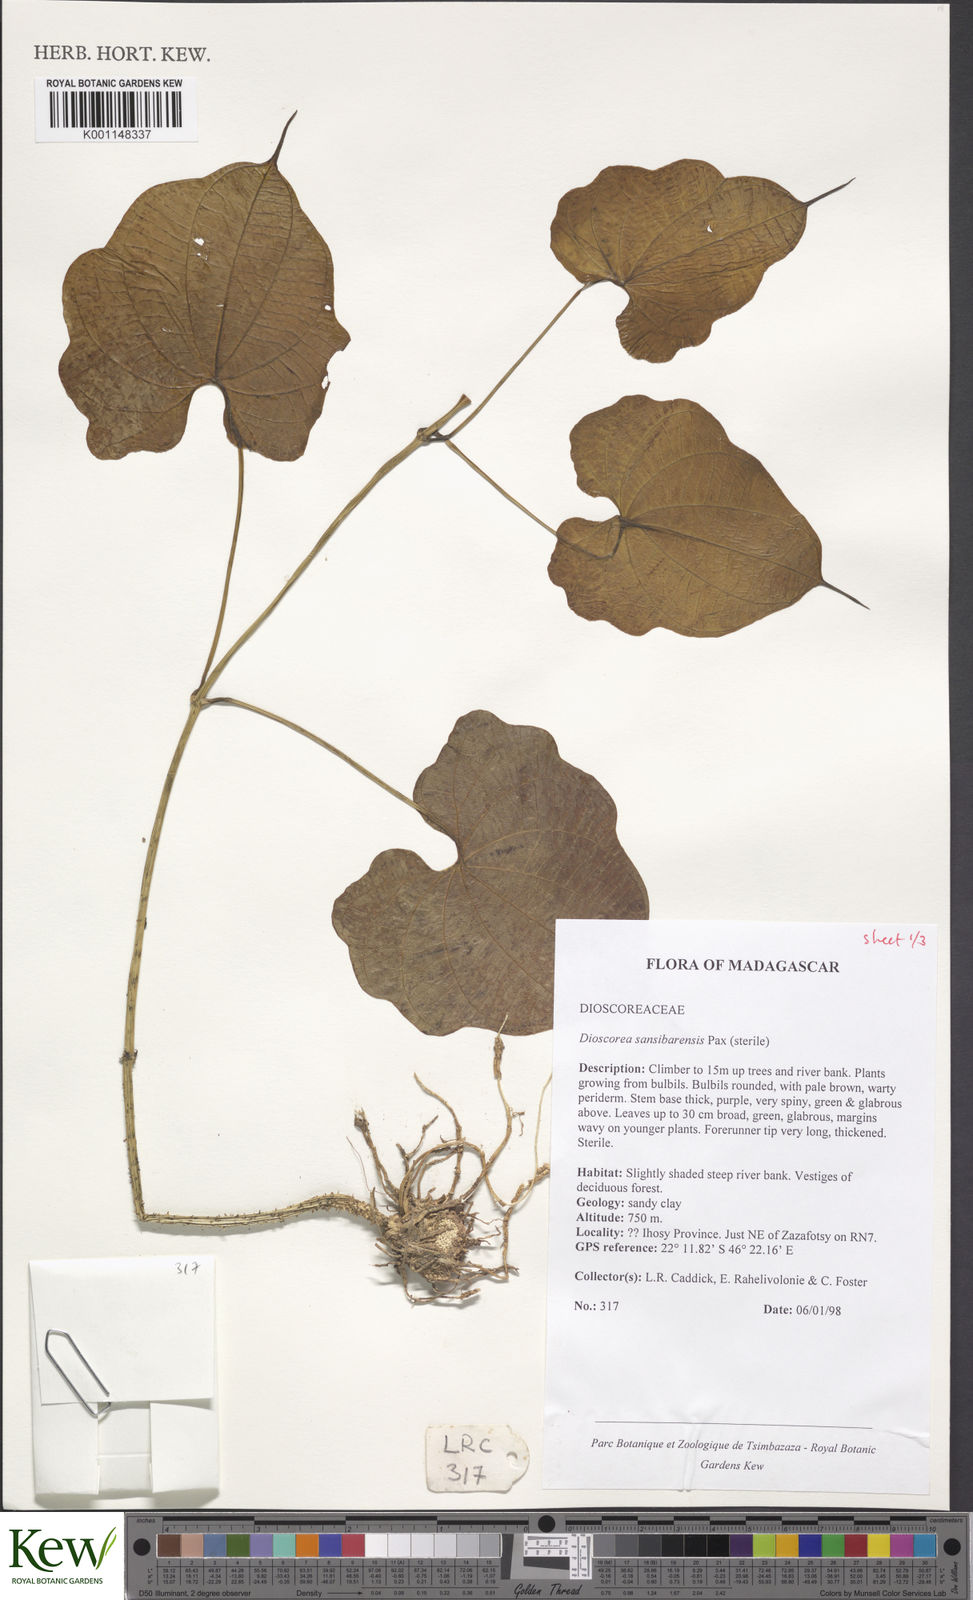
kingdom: Plantae
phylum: Tracheophyta
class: Liliopsida
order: Dioscoreales
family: Dioscoreaceae
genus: Dioscorea
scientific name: Dioscorea sansibarensis
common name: Zanzibar yam
